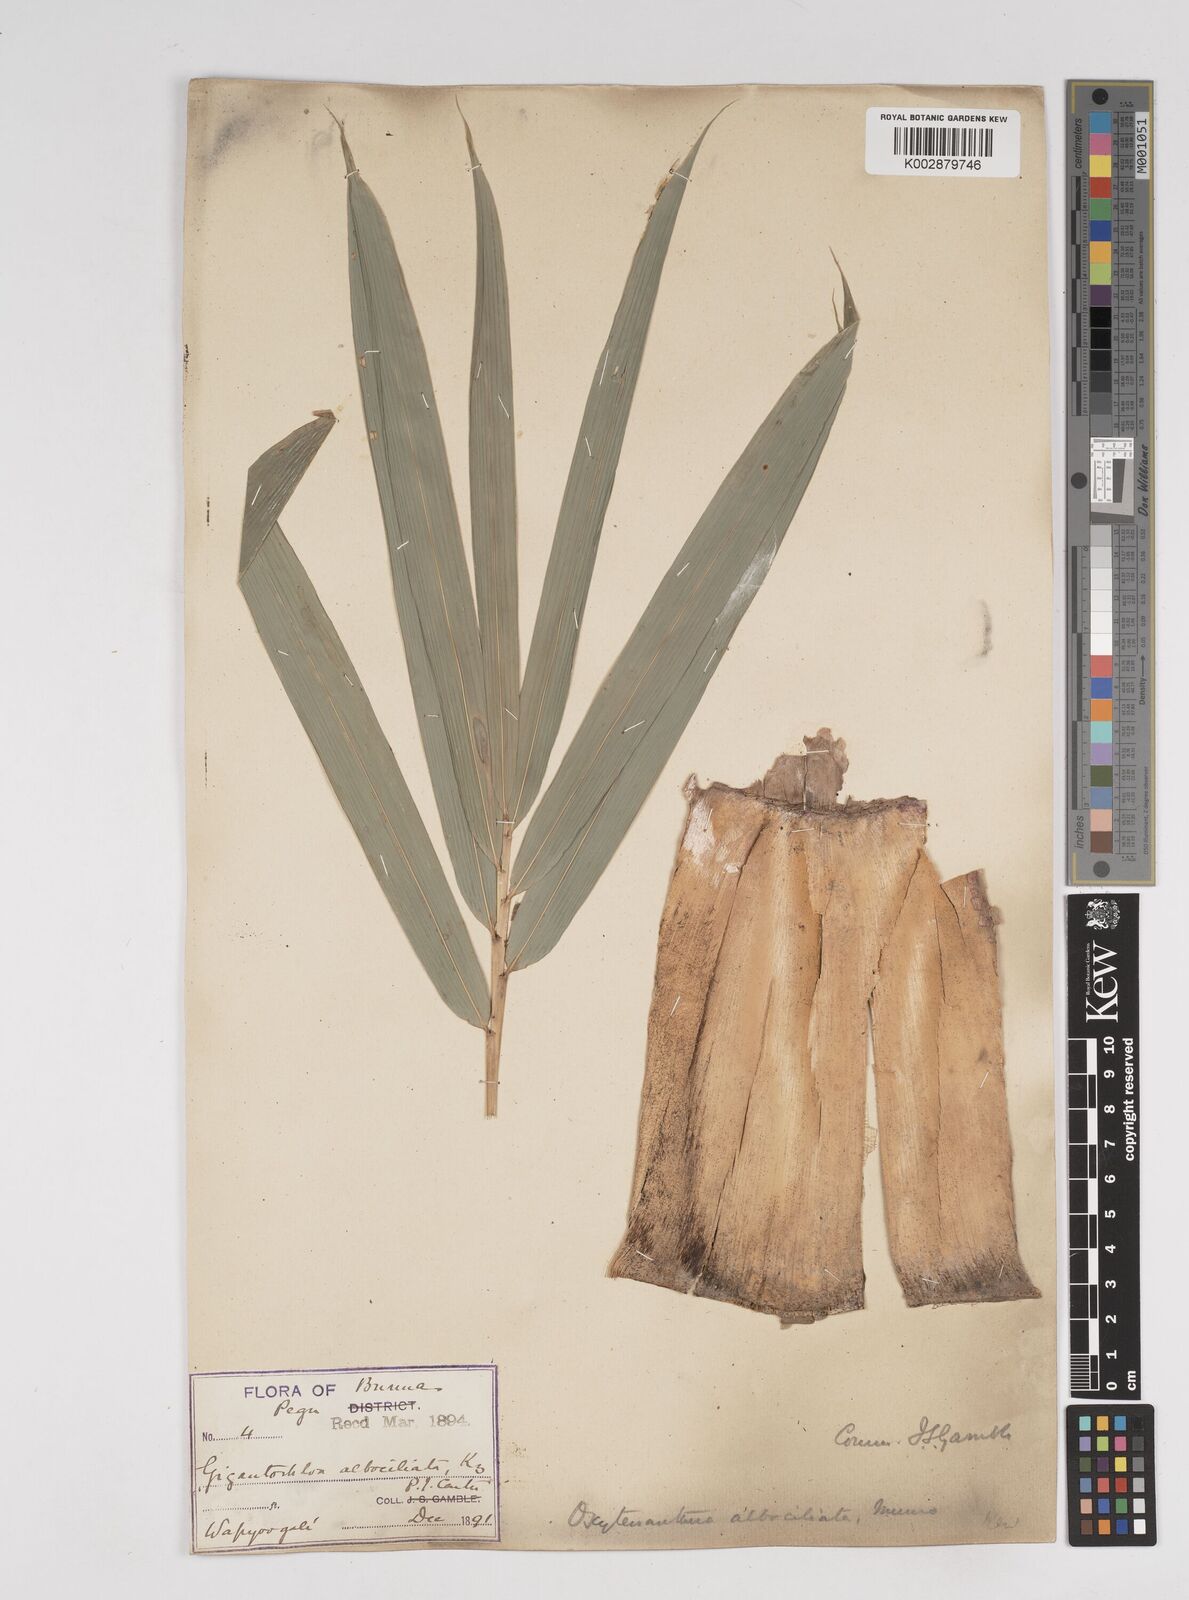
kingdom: Plantae
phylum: Tracheophyta
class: Liliopsida
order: Poales
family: Poaceae
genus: Gigantochloa
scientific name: Gigantochloa albociliata
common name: White-fringe gigantochloa
